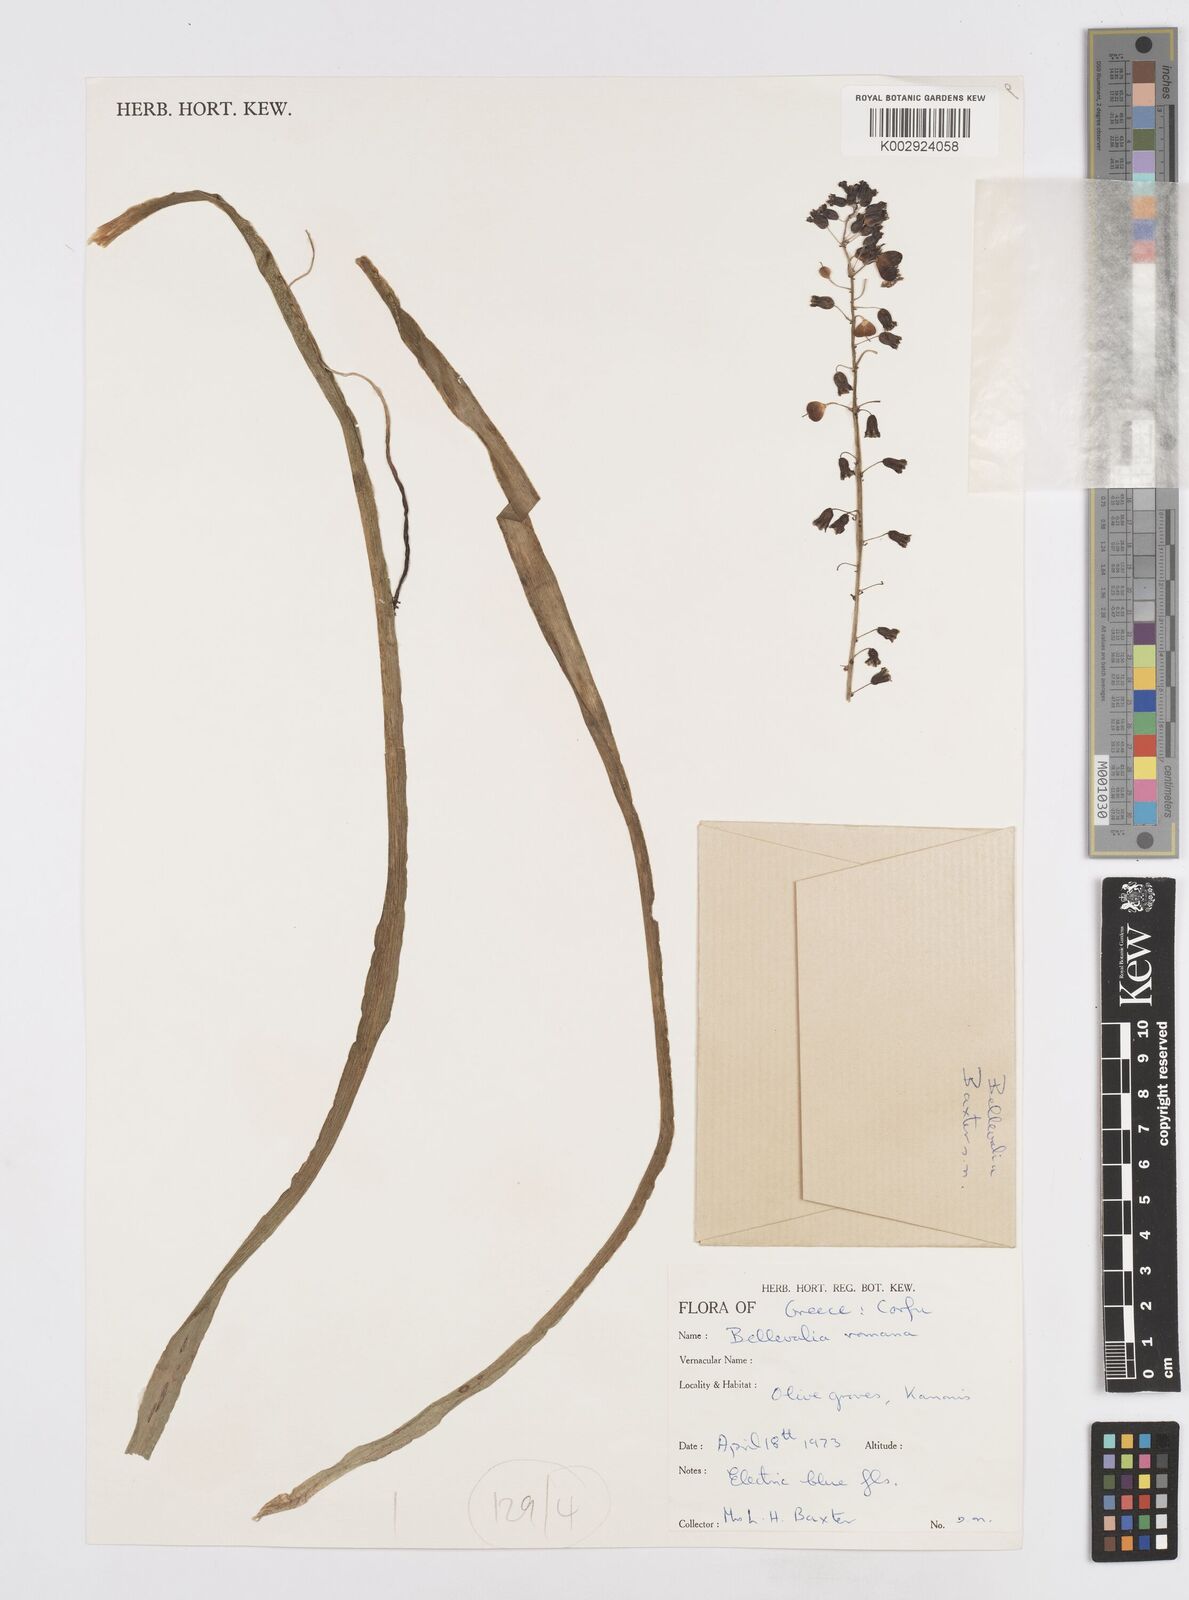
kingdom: Plantae
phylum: Tracheophyta
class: Liliopsida
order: Asparagales
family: Asparagaceae
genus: Bellevalia
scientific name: Bellevalia dubia
